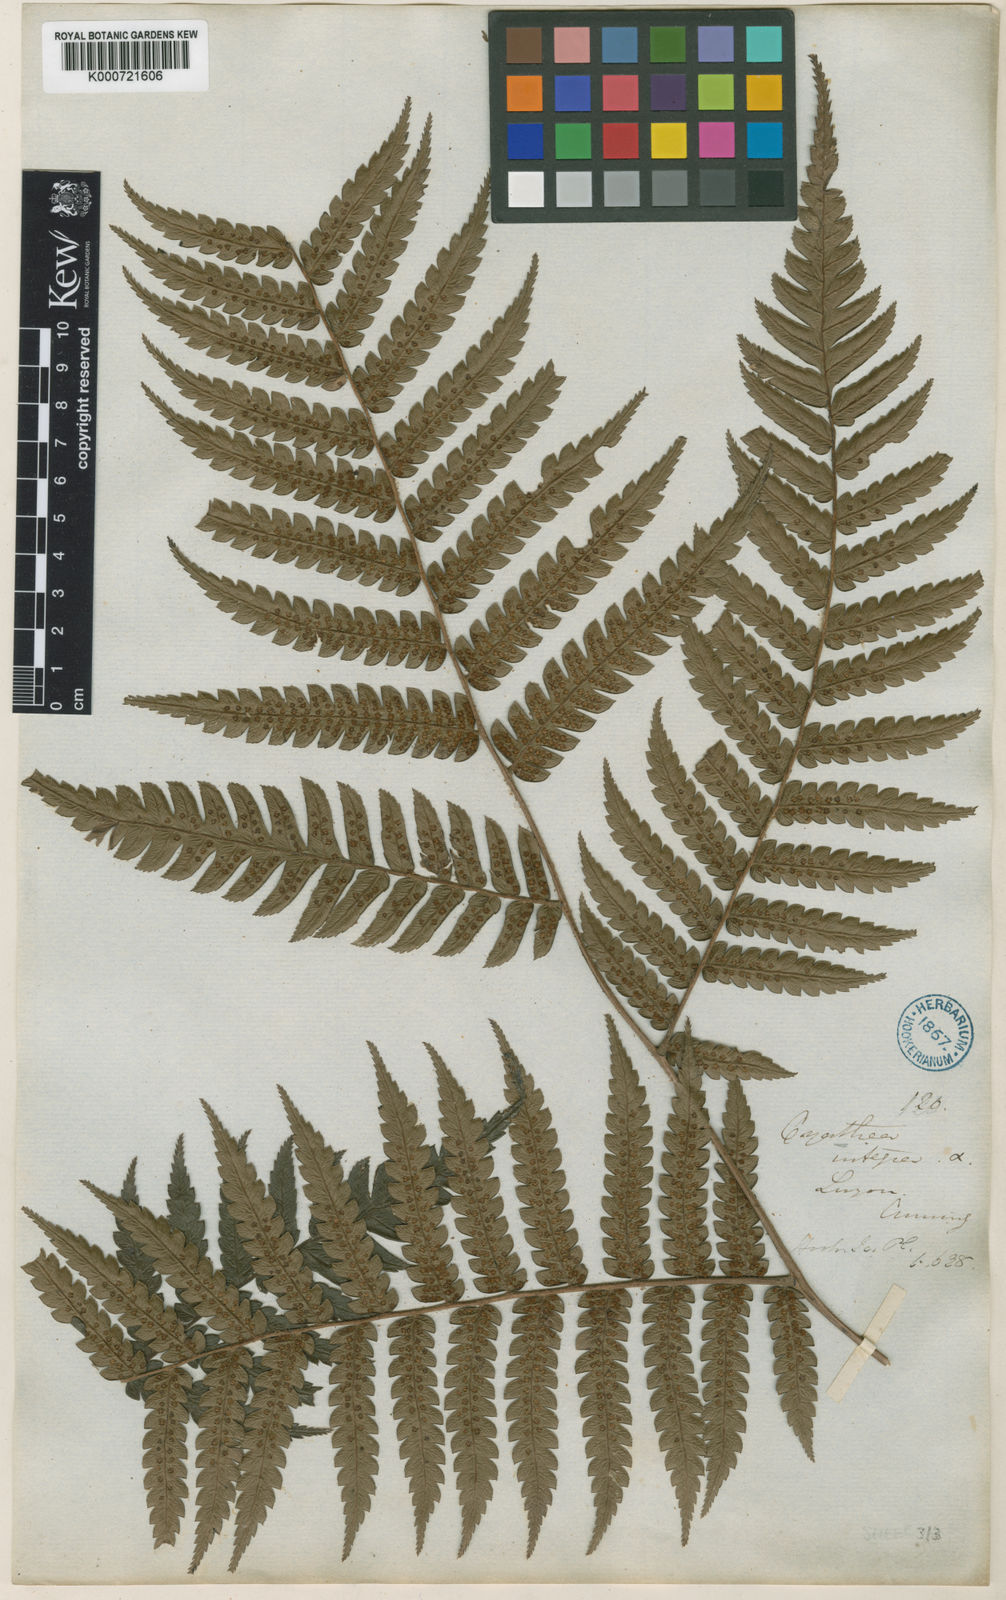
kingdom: Plantae
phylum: Tracheophyta
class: Polypodiopsida
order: Cyatheales
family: Cyatheaceae
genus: Sphaeropteris
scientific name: Sphaeropteris integra
